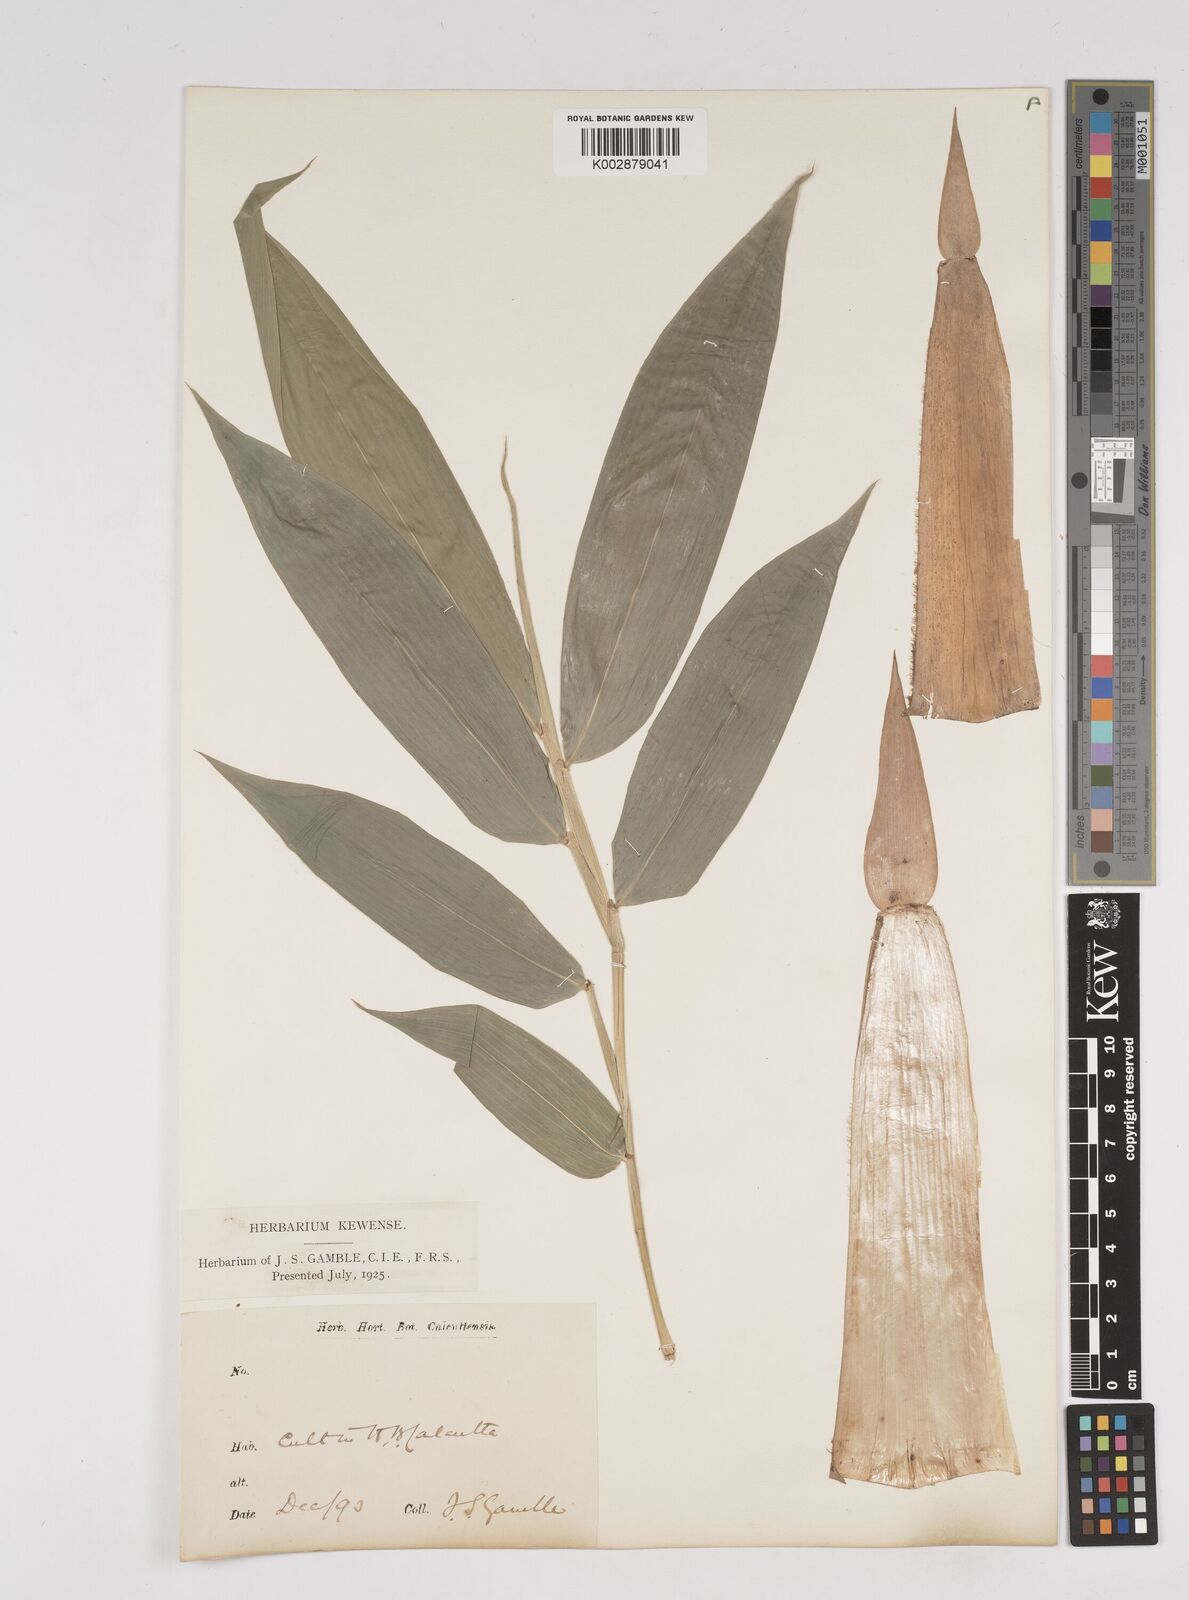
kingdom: Plantae
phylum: Tracheophyta
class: Liliopsida
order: Poales
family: Poaceae
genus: Dendrocalamus
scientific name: Dendrocalamus membranaceus
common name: White bamboo
